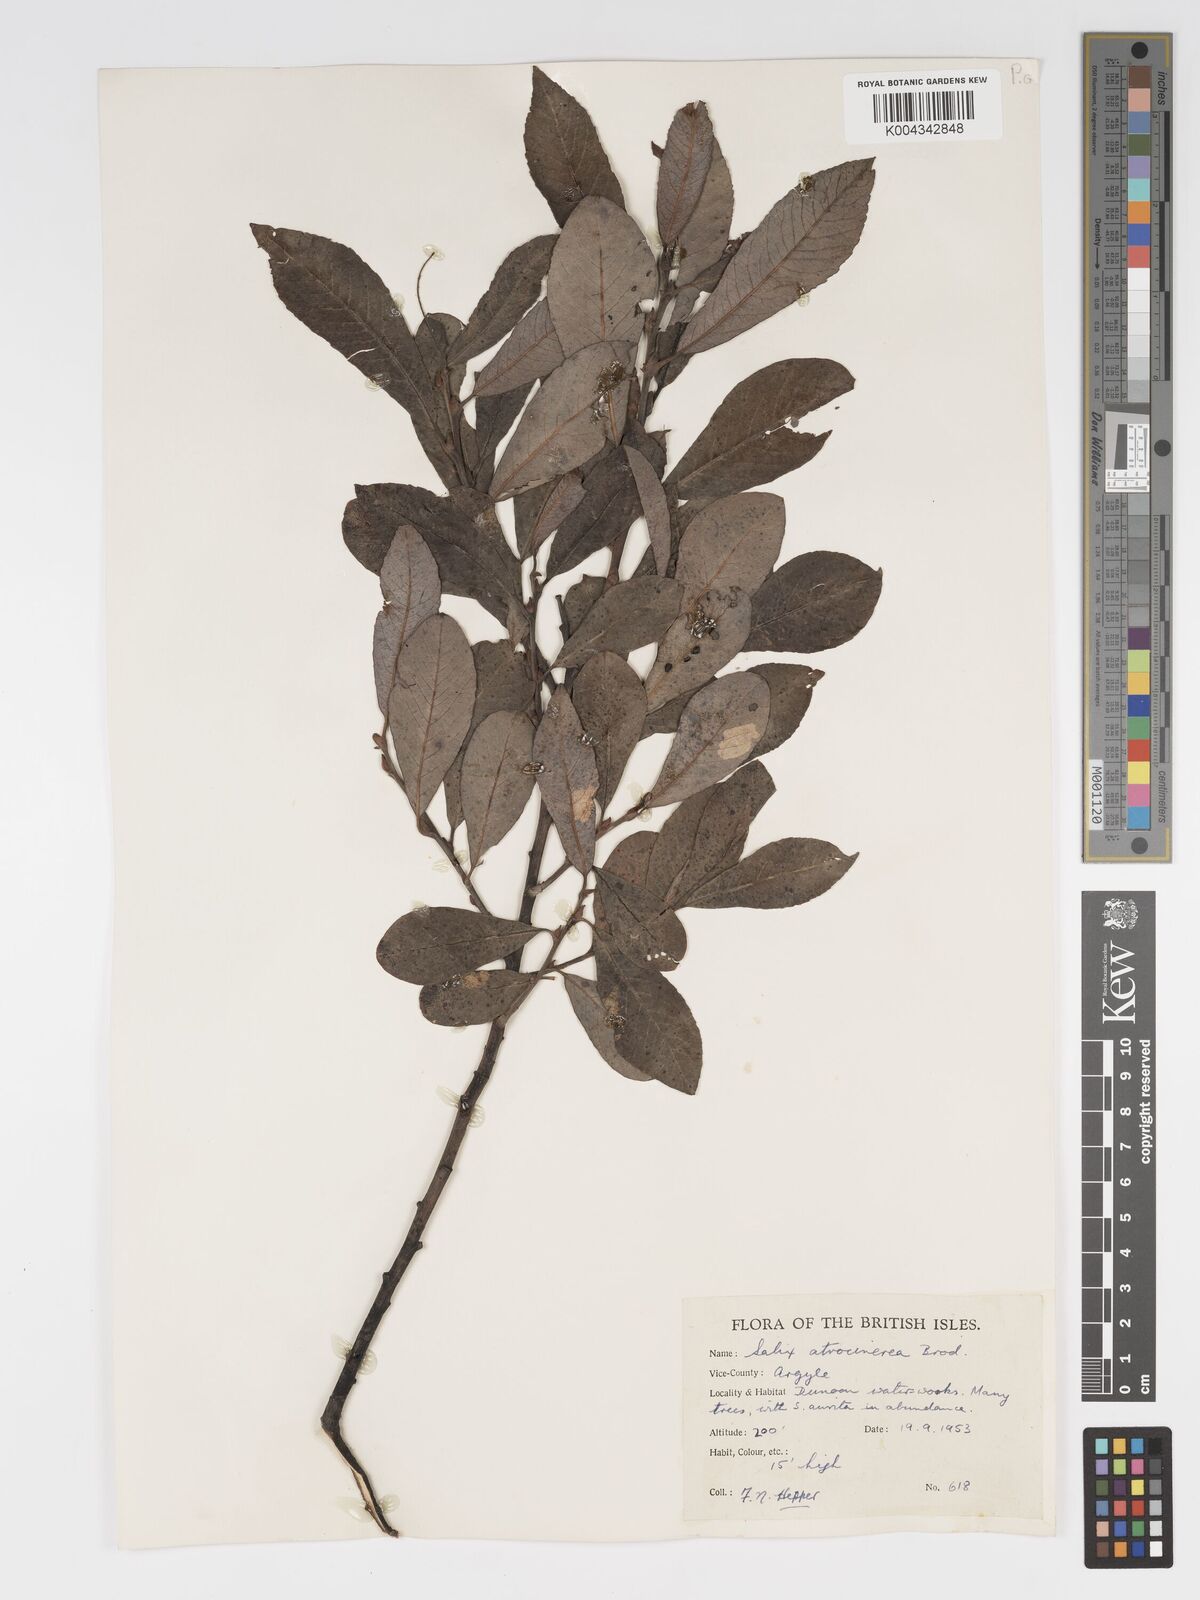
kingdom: Plantae
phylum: Tracheophyta
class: Magnoliopsida
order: Malpighiales
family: Salicaceae
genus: Salix
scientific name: Salix atrocinerea
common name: Rusty willow
